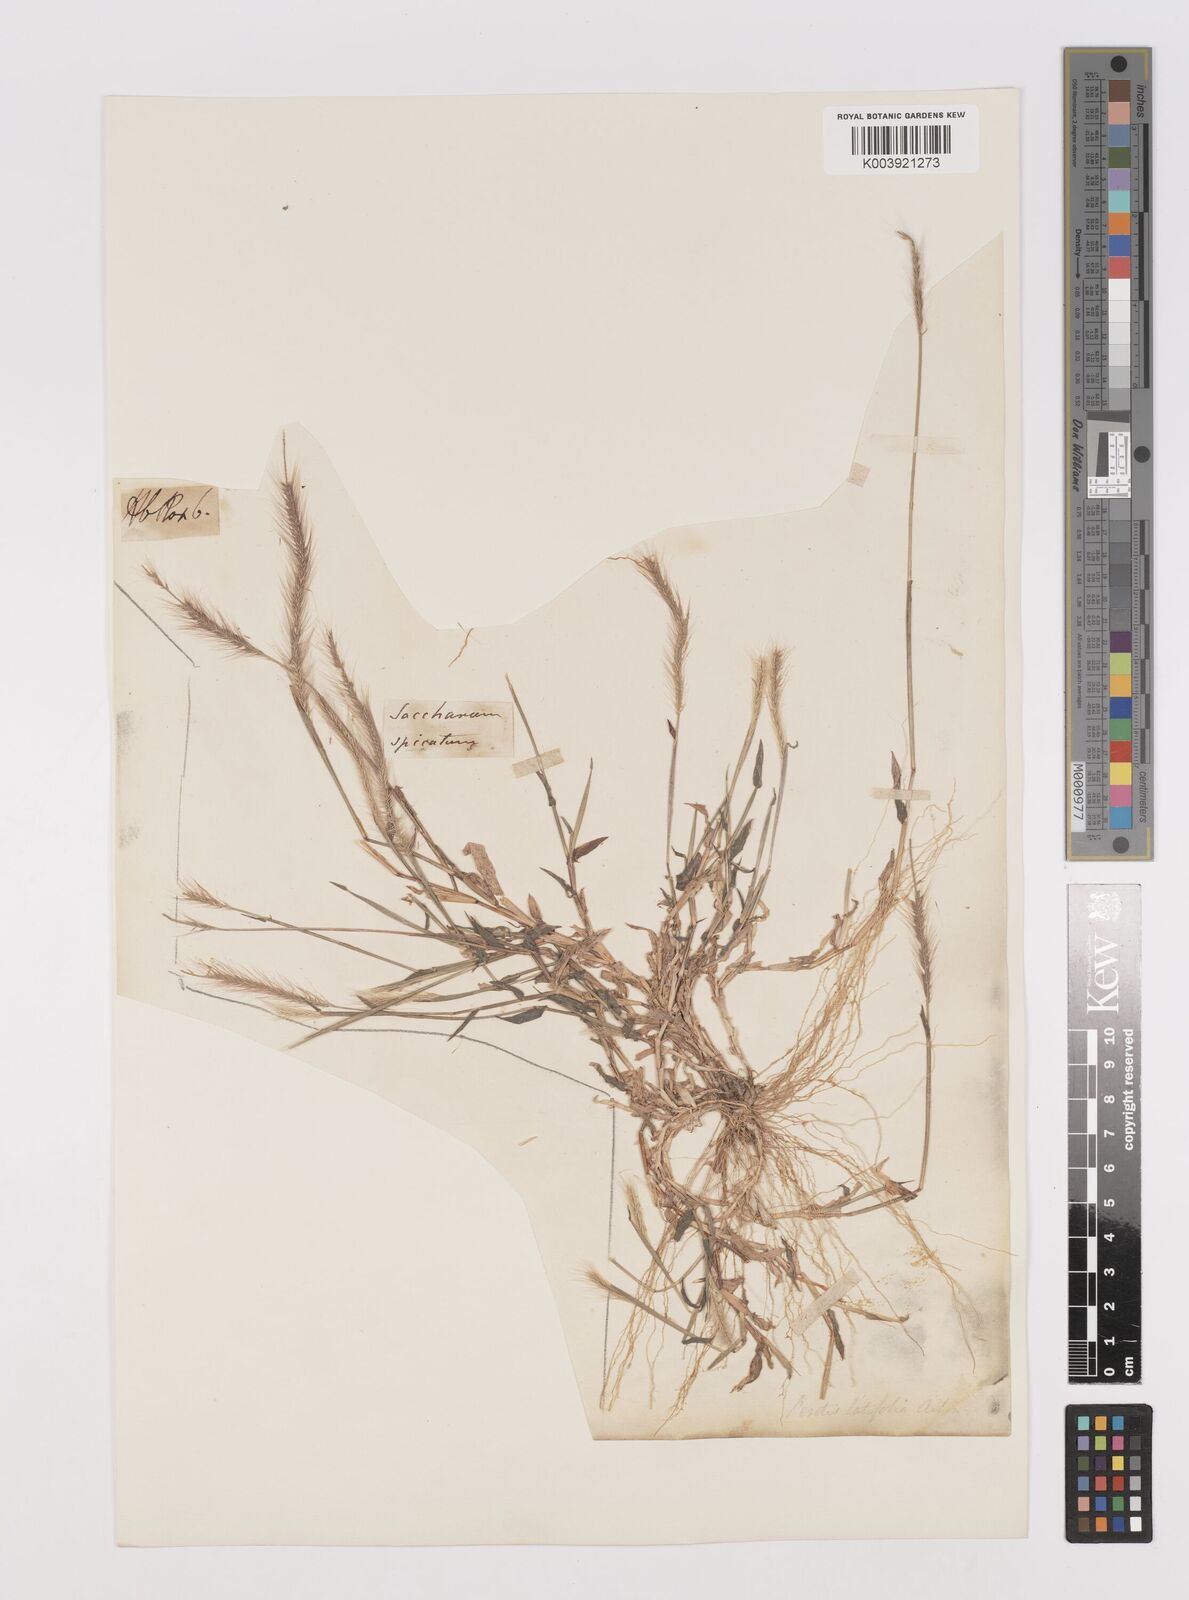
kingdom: Plantae
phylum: Tracheophyta
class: Liliopsida
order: Poales
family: Poaceae
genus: Perotis
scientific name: Perotis hordeiformis
